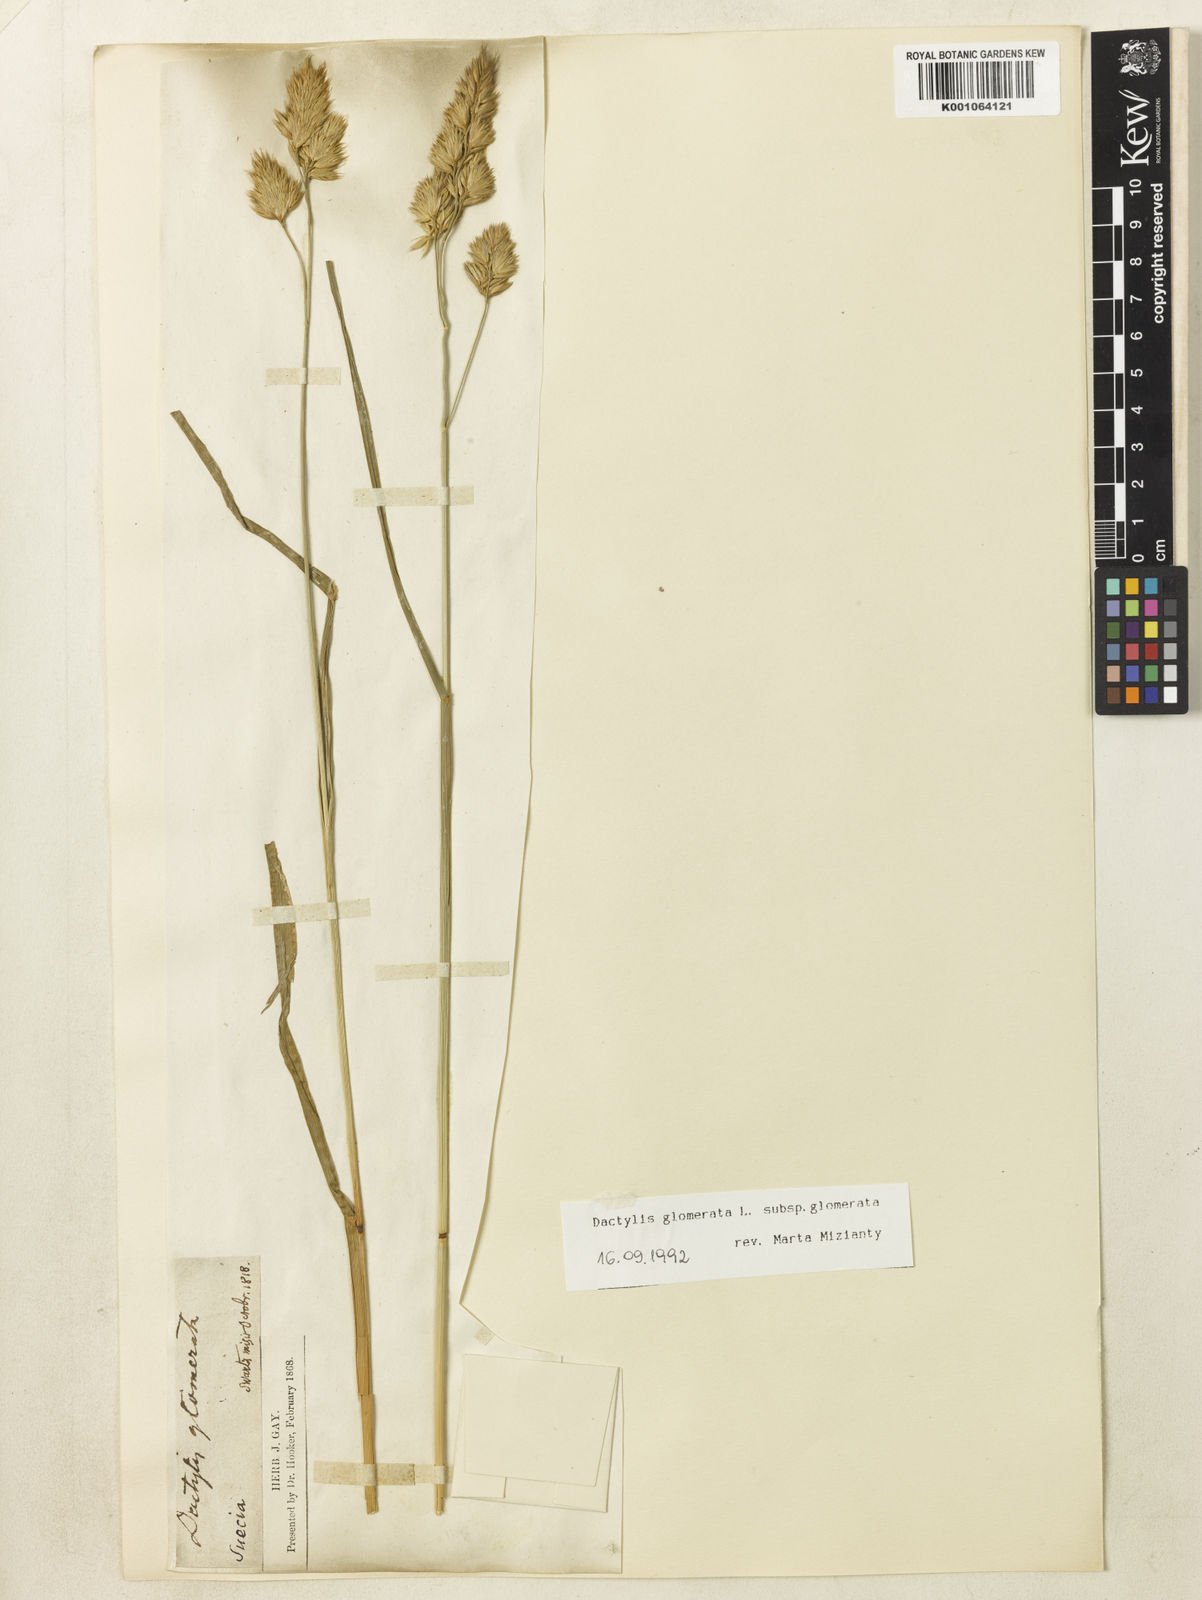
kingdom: Plantae
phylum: Tracheophyta
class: Liliopsida
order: Poales
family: Poaceae
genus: Dactylis
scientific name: Dactylis glomerata
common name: Orchardgrass
